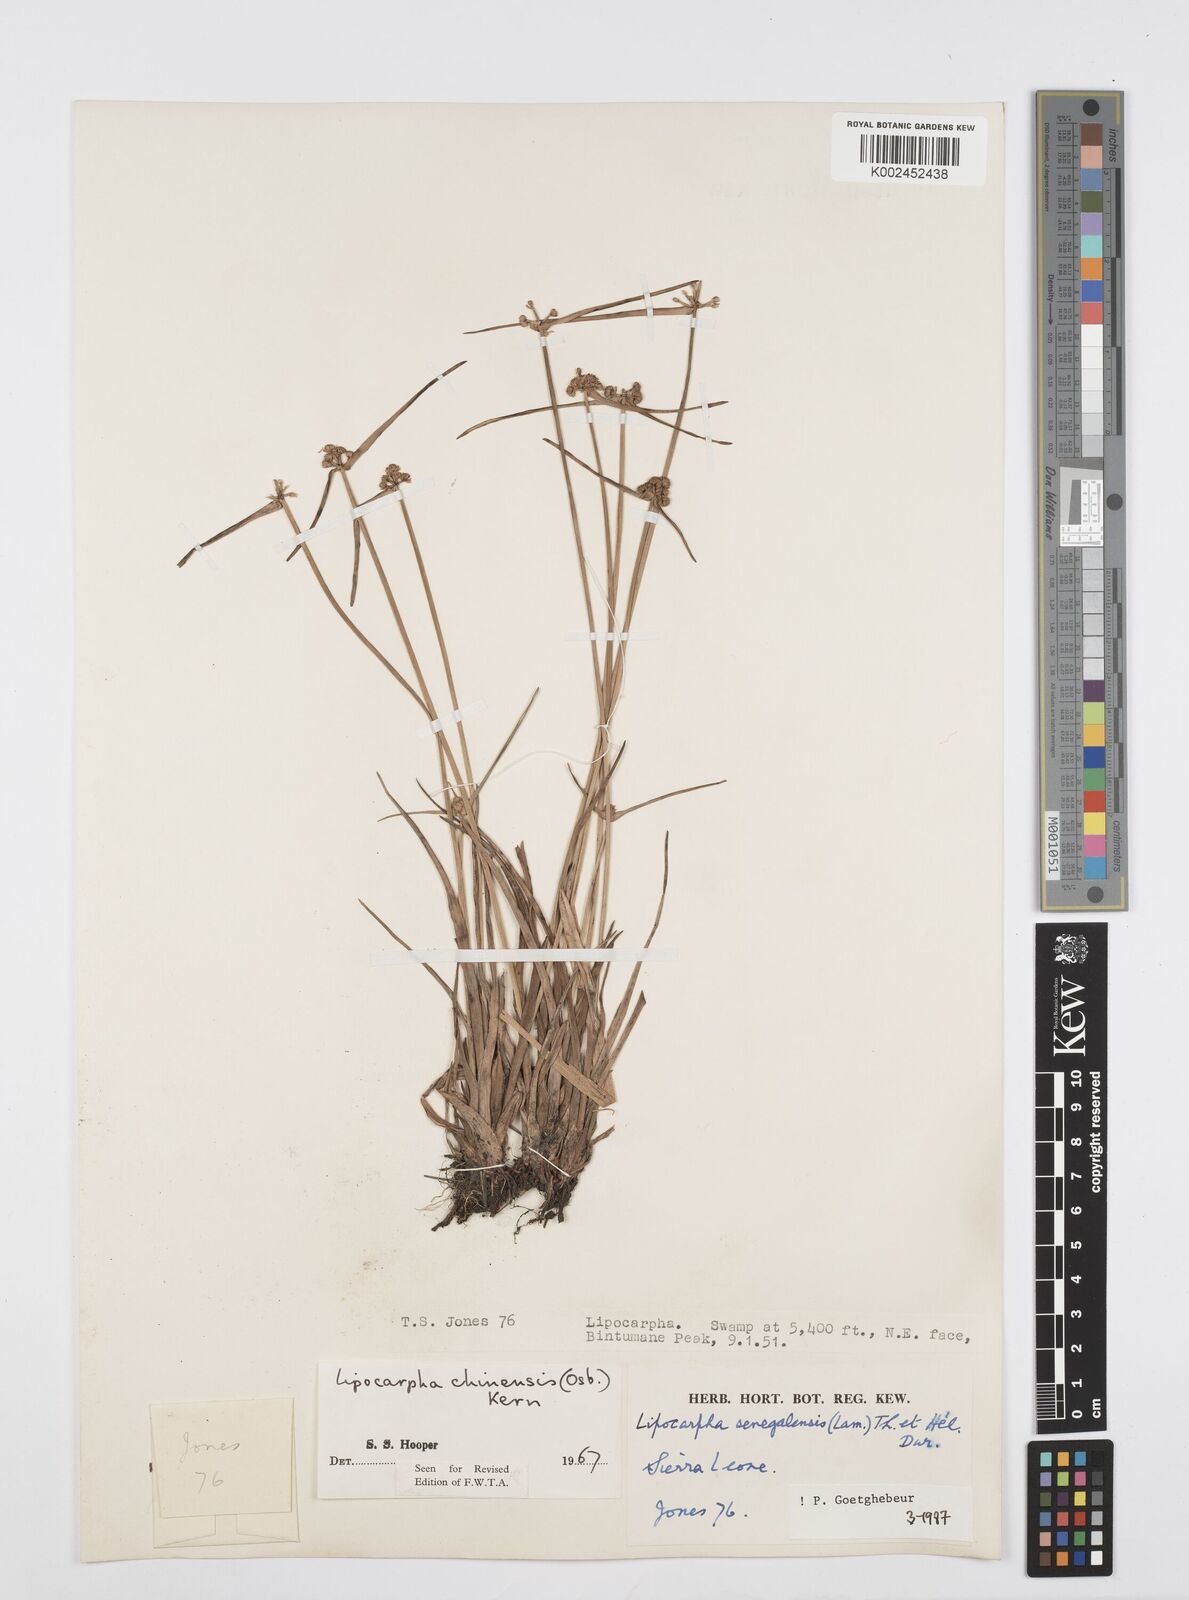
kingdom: Plantae
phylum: Tracheophyta
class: Liliopsida
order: Poales
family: Cyperaceae
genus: Cyperus
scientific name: Cyperus albescens
